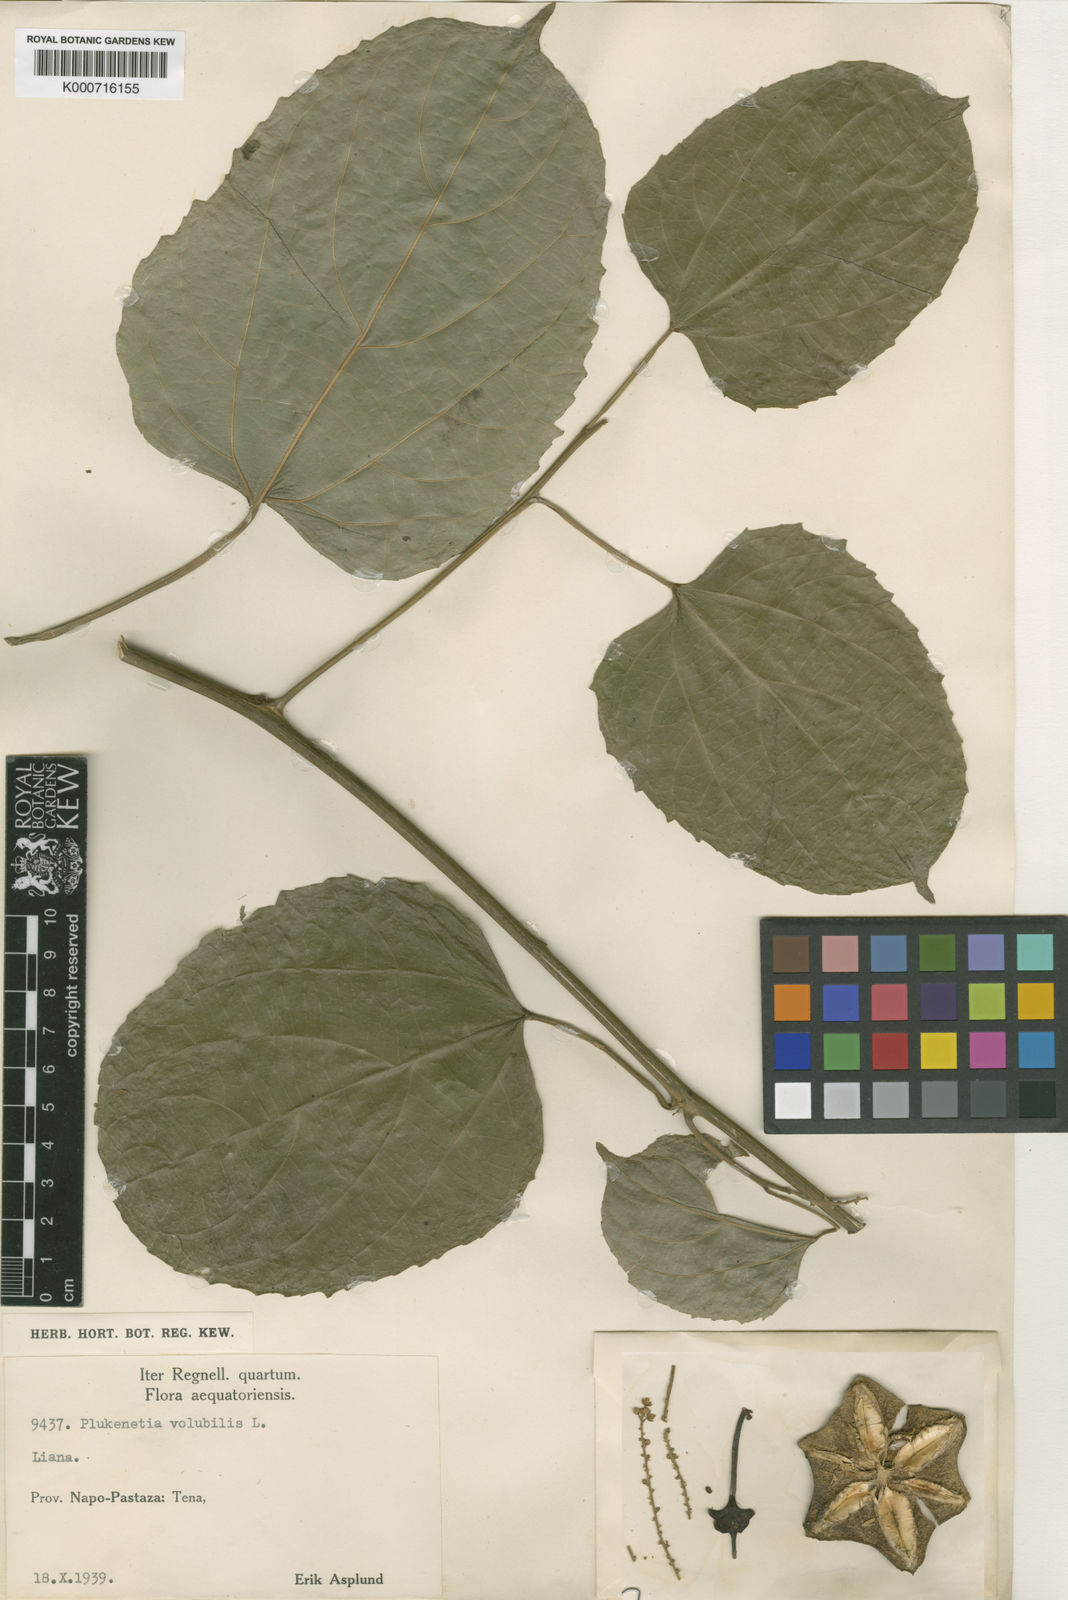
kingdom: Plantae
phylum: Tracheophyta
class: Magnoliopsida
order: Malpighiales
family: Euphorbiaceae
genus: Plukenetia
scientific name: Plukenetia volubilis
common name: Inca-peanut
